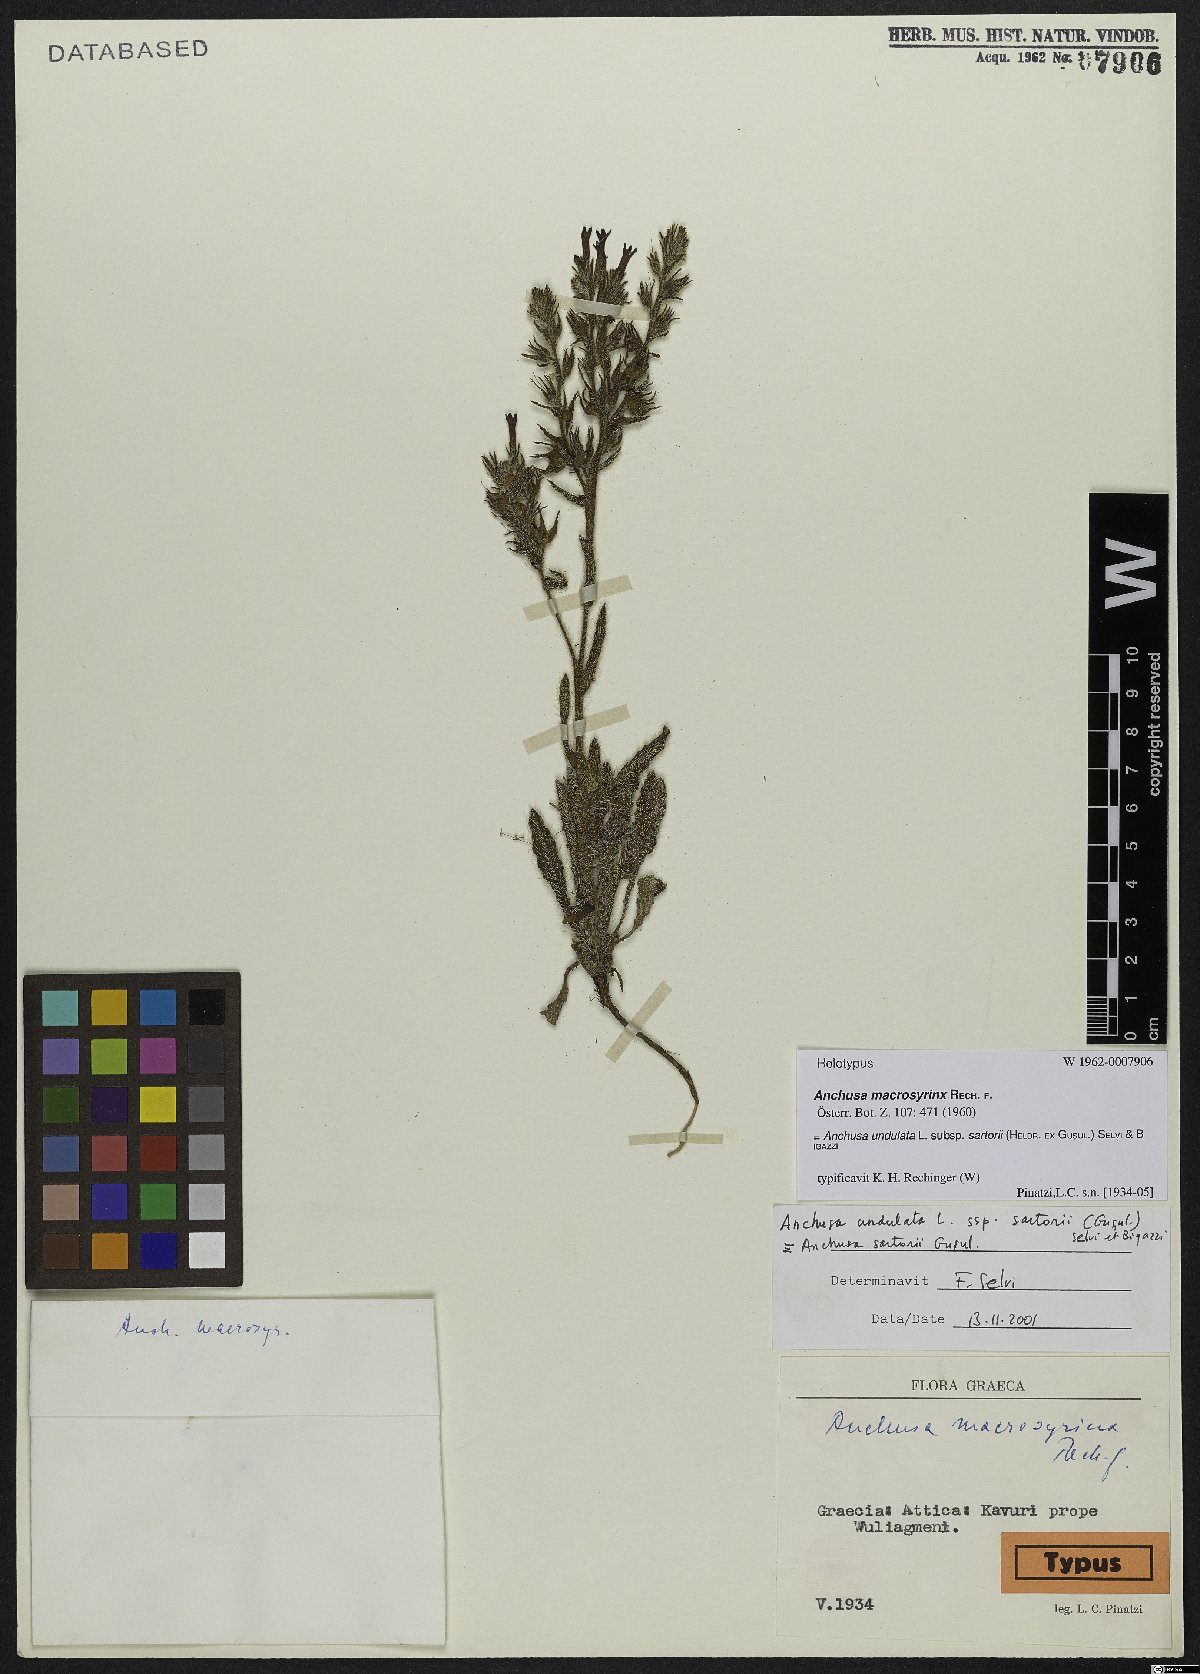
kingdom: Plantae
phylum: Tracheophyta
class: Magnoliopsida
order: Boraginales
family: Boraginaceae
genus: Anchusa
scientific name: Anchusa undulata
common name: Undulate alkanet
